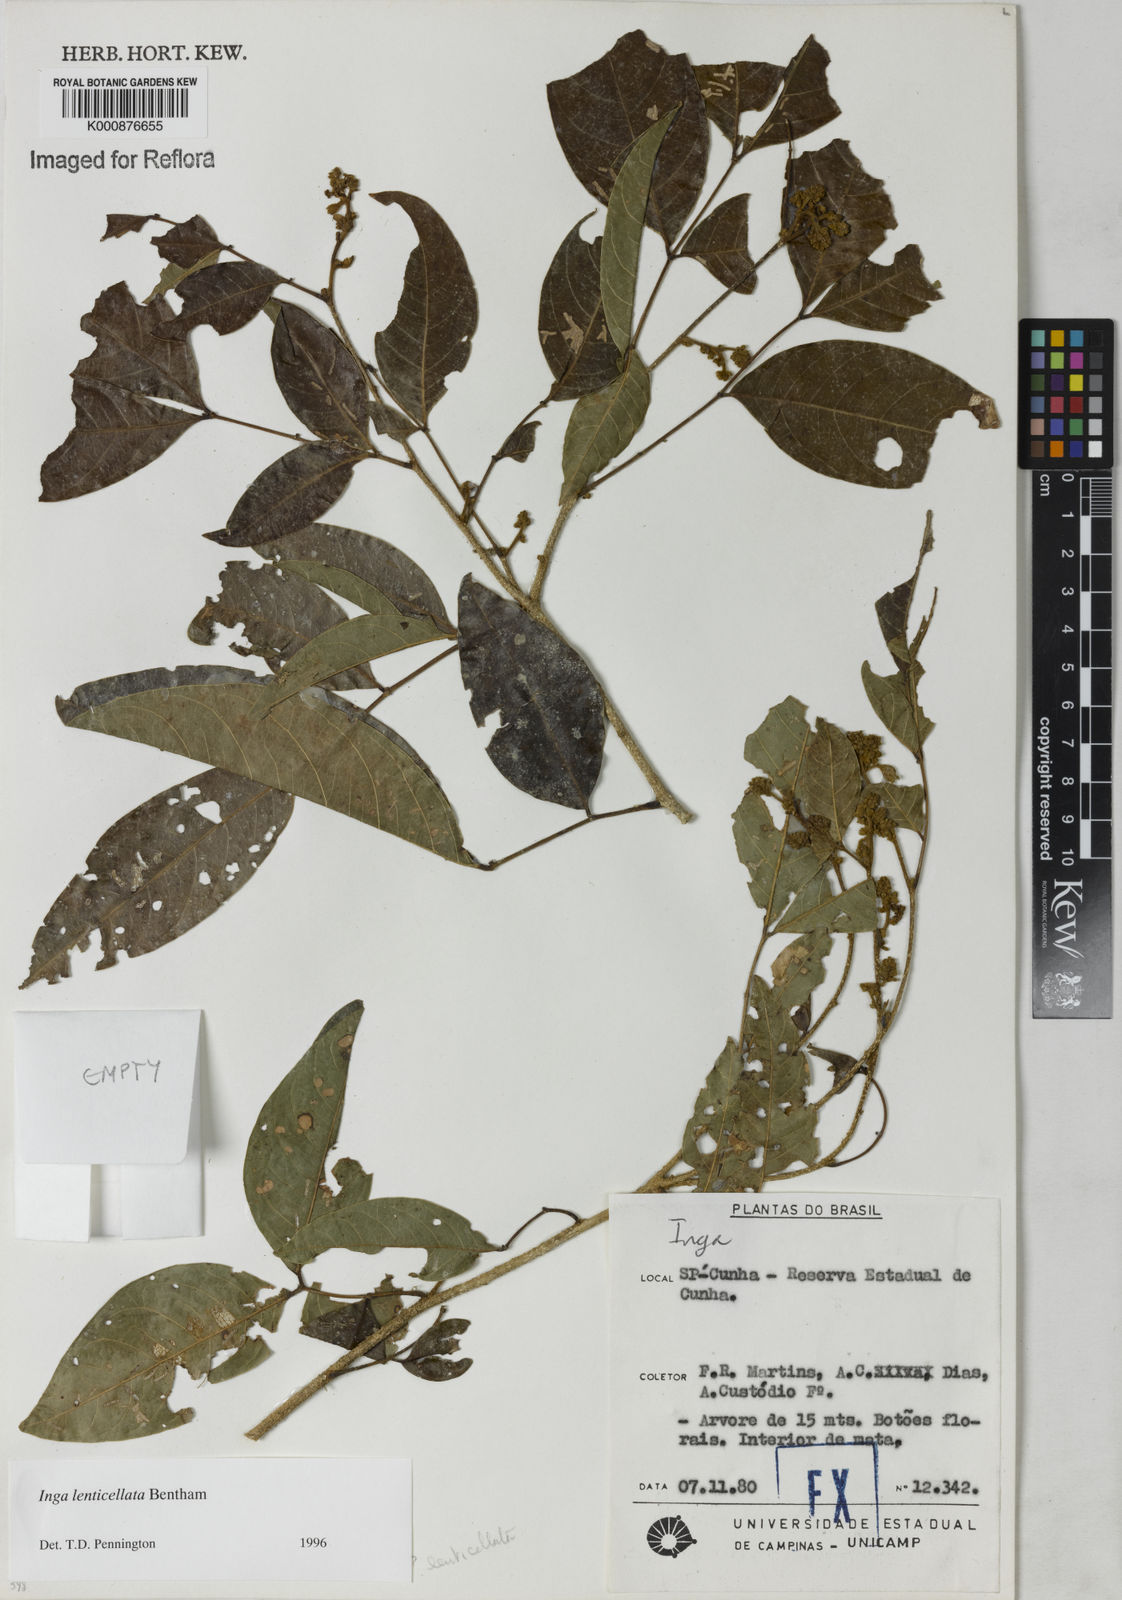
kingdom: Plantae
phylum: Tracheophyta
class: Magnoliopsida
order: Fabales
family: Fabaceae
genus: Inga
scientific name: Inga lenticellata
